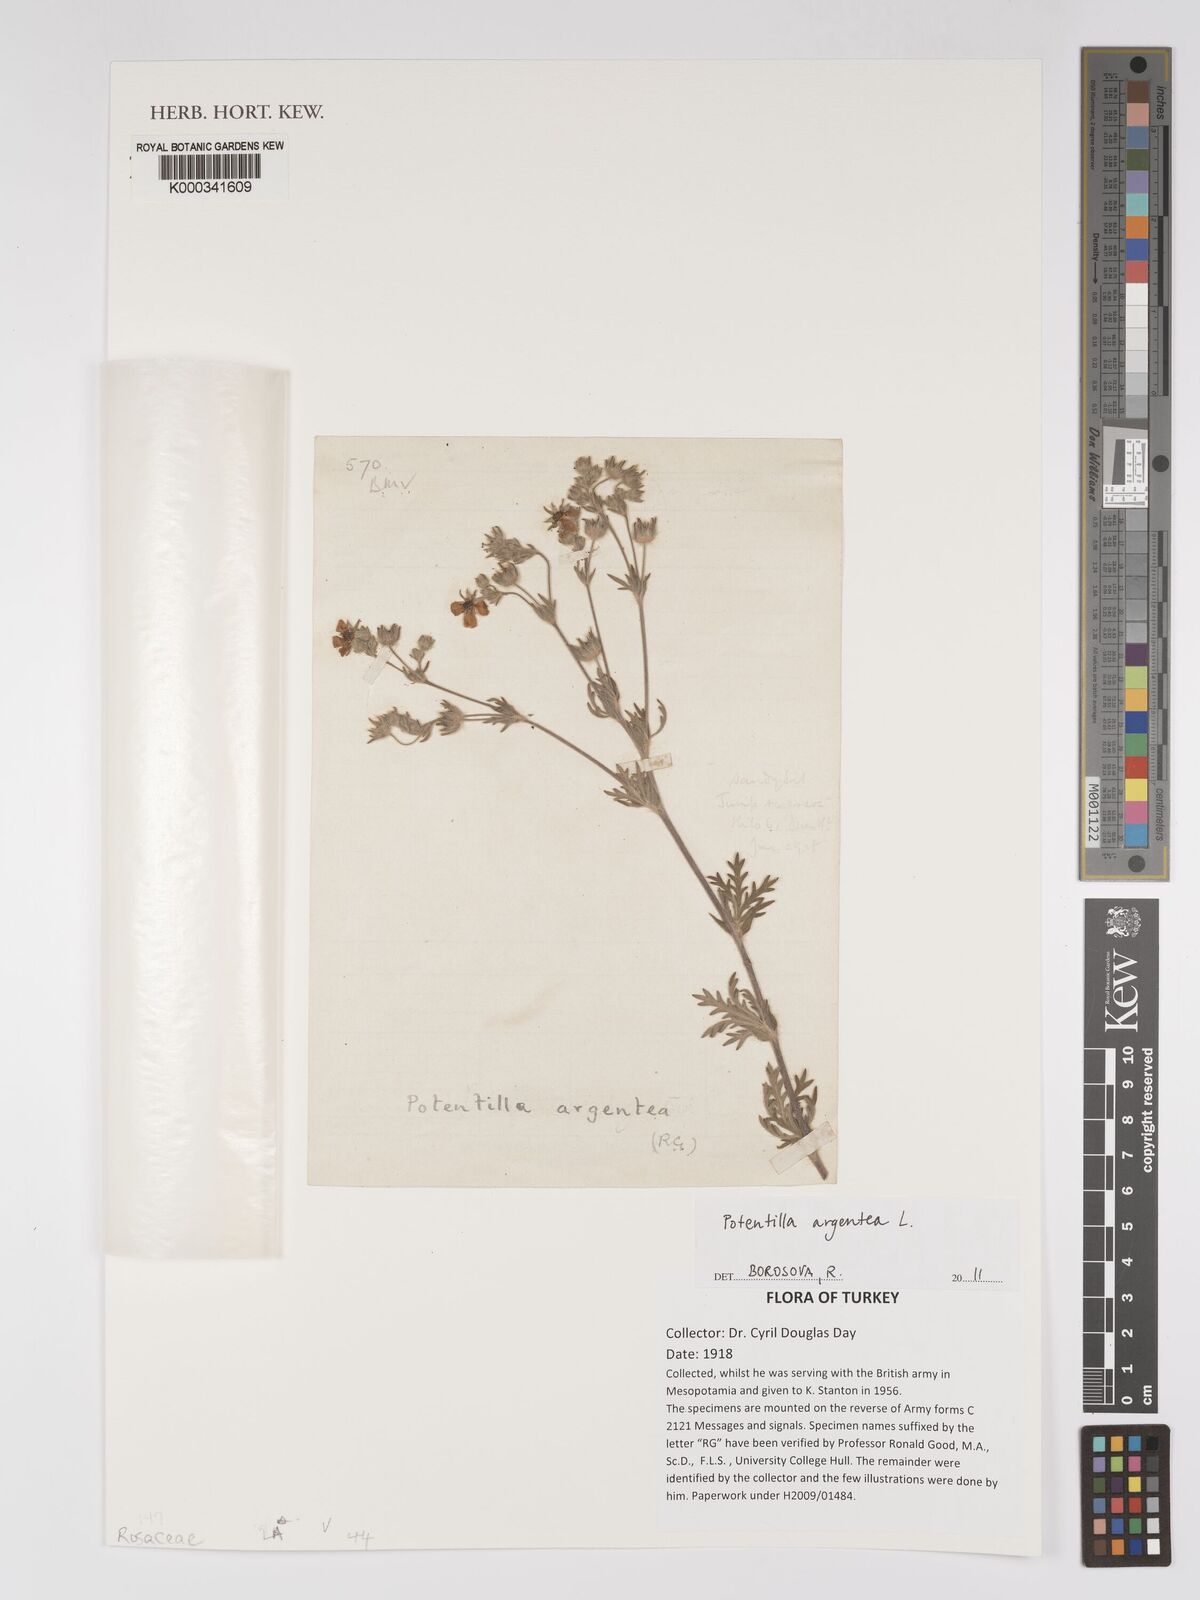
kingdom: Plantae
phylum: Tracheophyta
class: Magnoliopsida
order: Rosales
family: Rosaceae
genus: Potentilla
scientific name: Potentilla argentea
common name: Hoary cinquefoil
